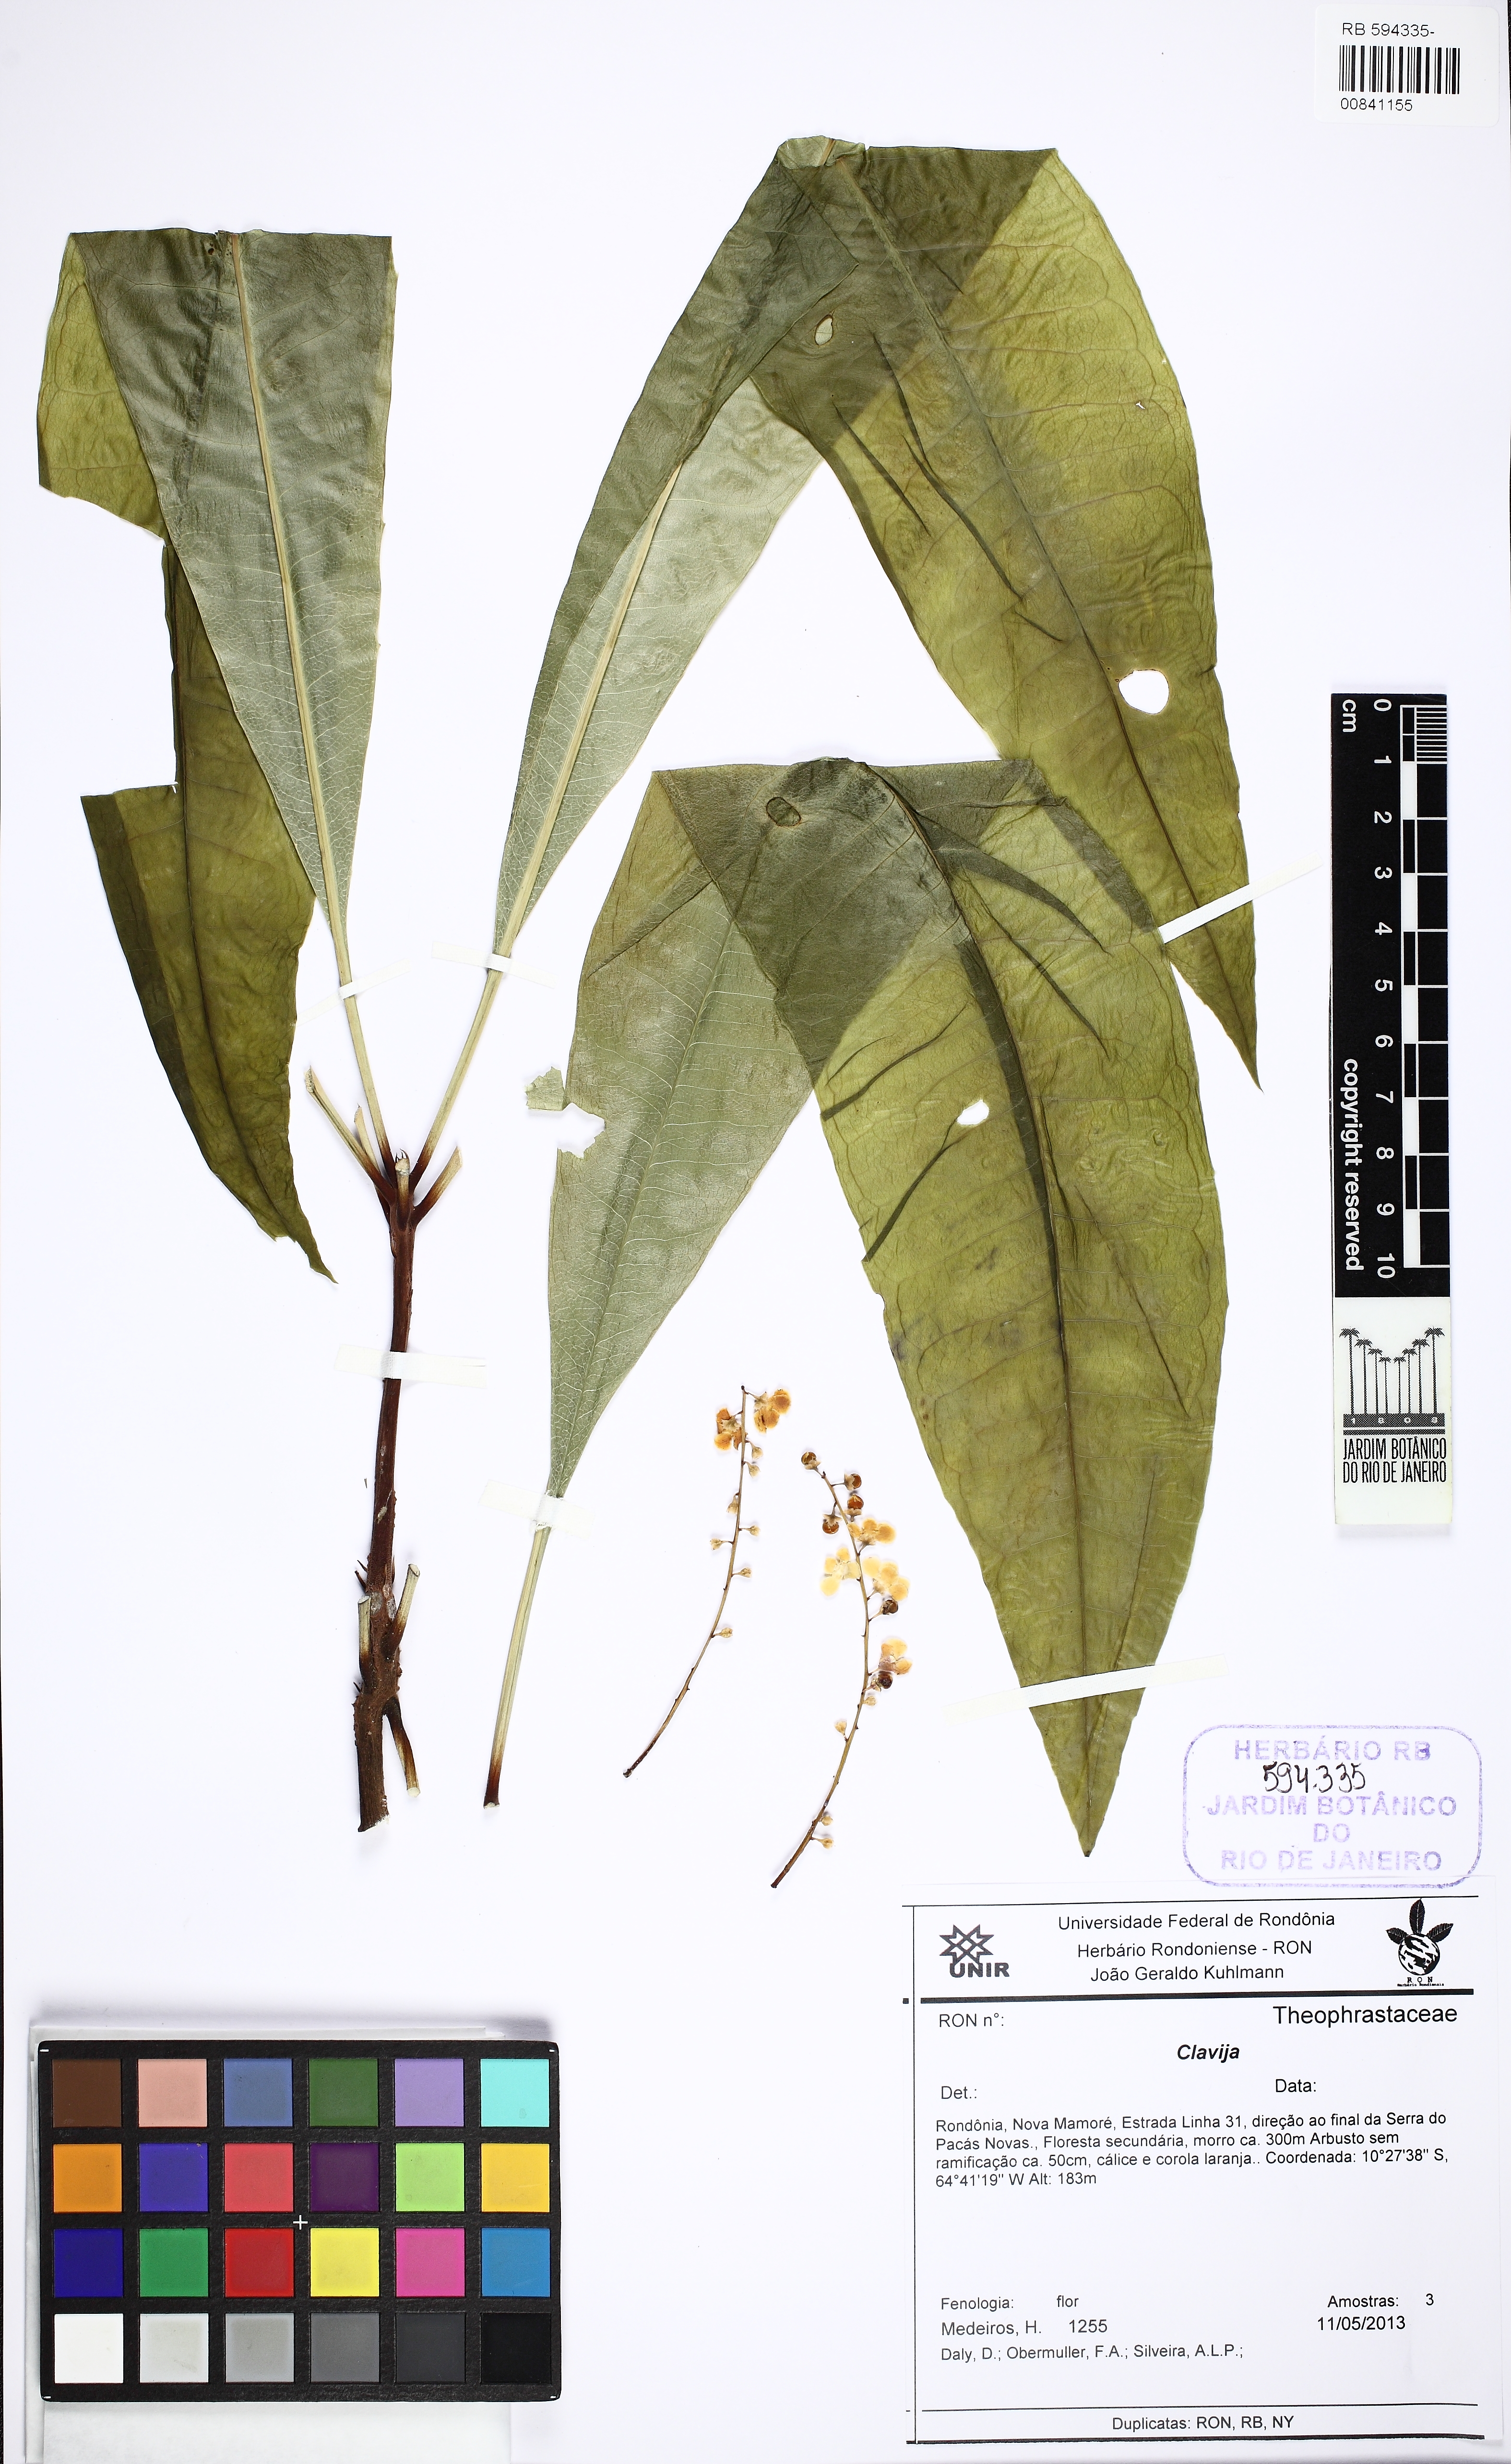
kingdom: Plantae
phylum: Tracheophyta
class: Magnoliopsida
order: Ericales
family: Primulaceae
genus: Clavija
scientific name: Clavija
